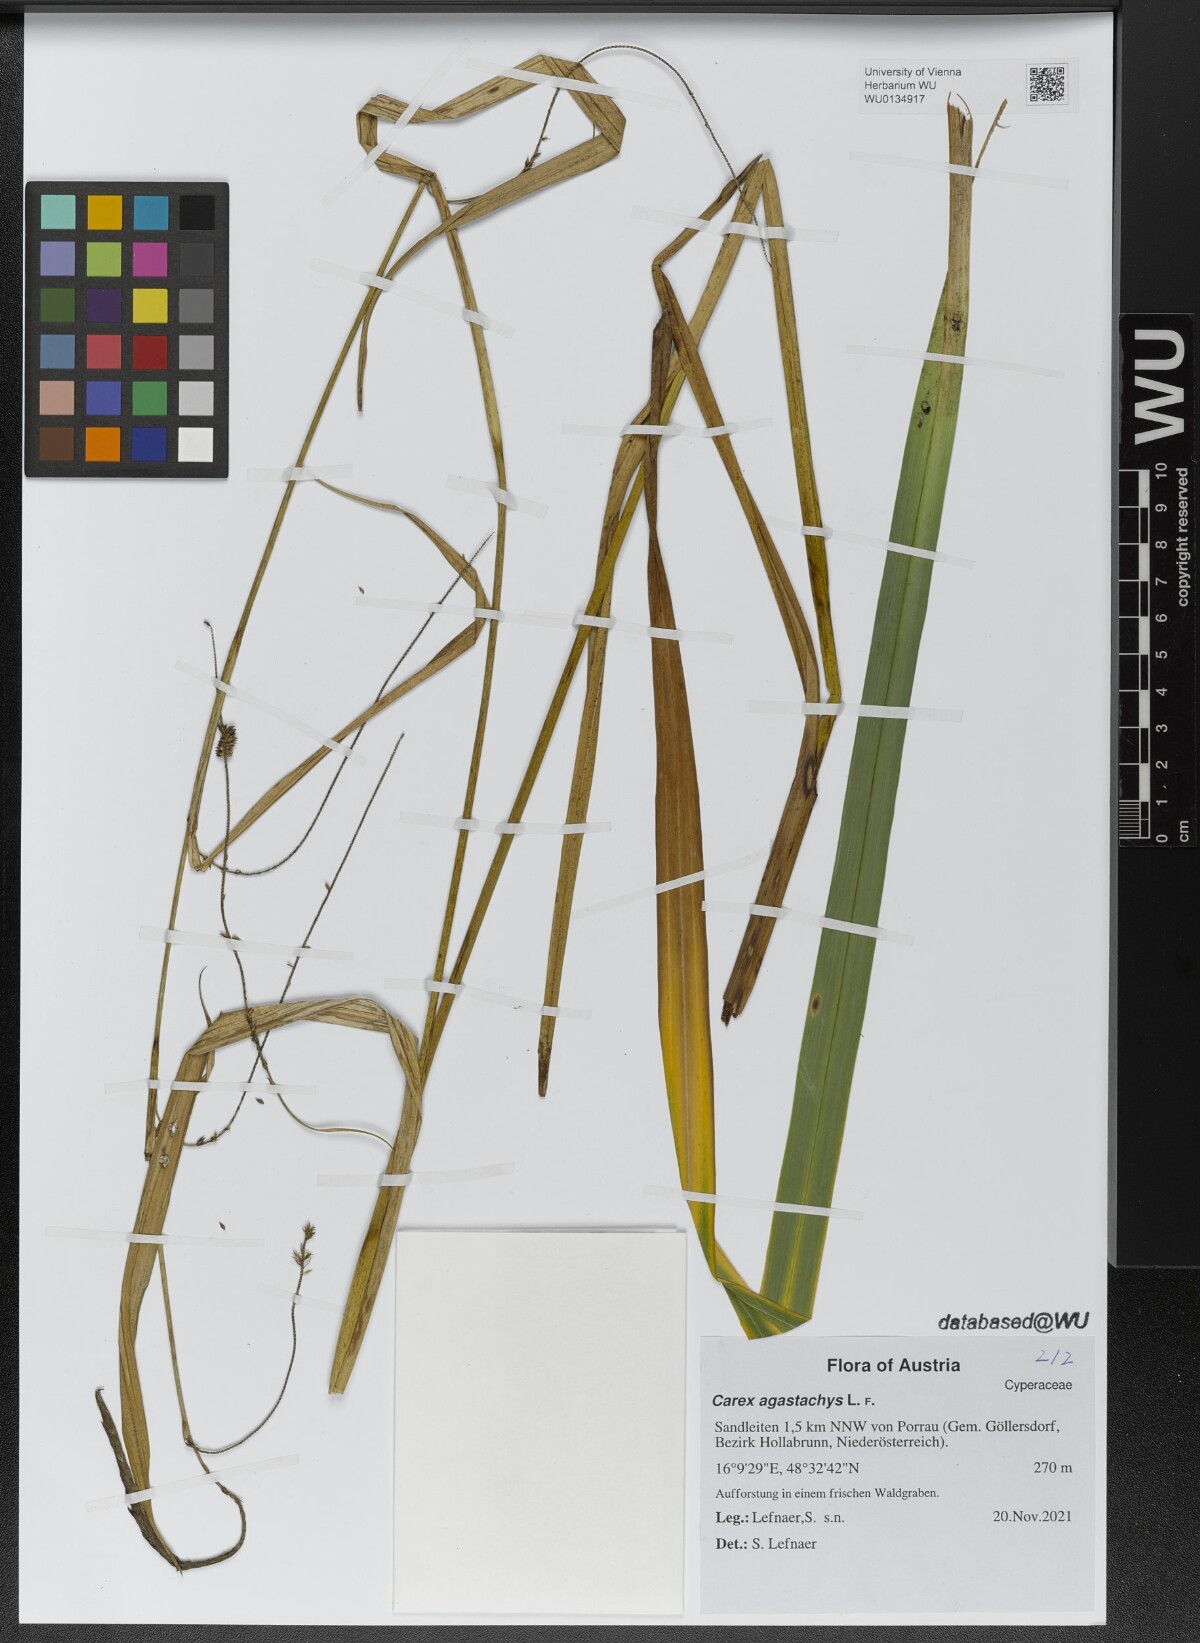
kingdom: Plantae
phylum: Tracheophyta
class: Liliopsida
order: Poales
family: Cyperaceae
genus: Carex
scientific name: Carex agastachys
